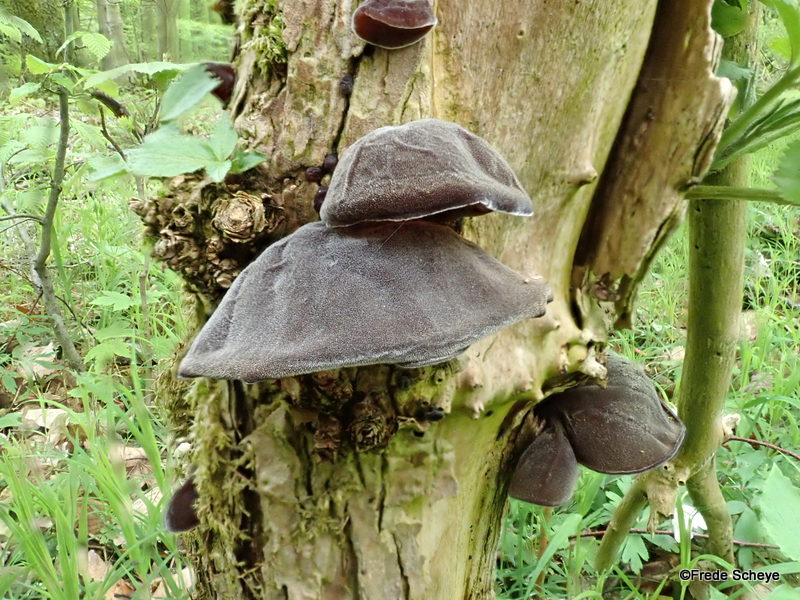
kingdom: Fungi
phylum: Basidiomycota
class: Agaricomycetes
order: Auriculariales
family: Auriculariaceae
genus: Auricularia
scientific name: Auricularia auricula-judae
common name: almindelig judasøre
